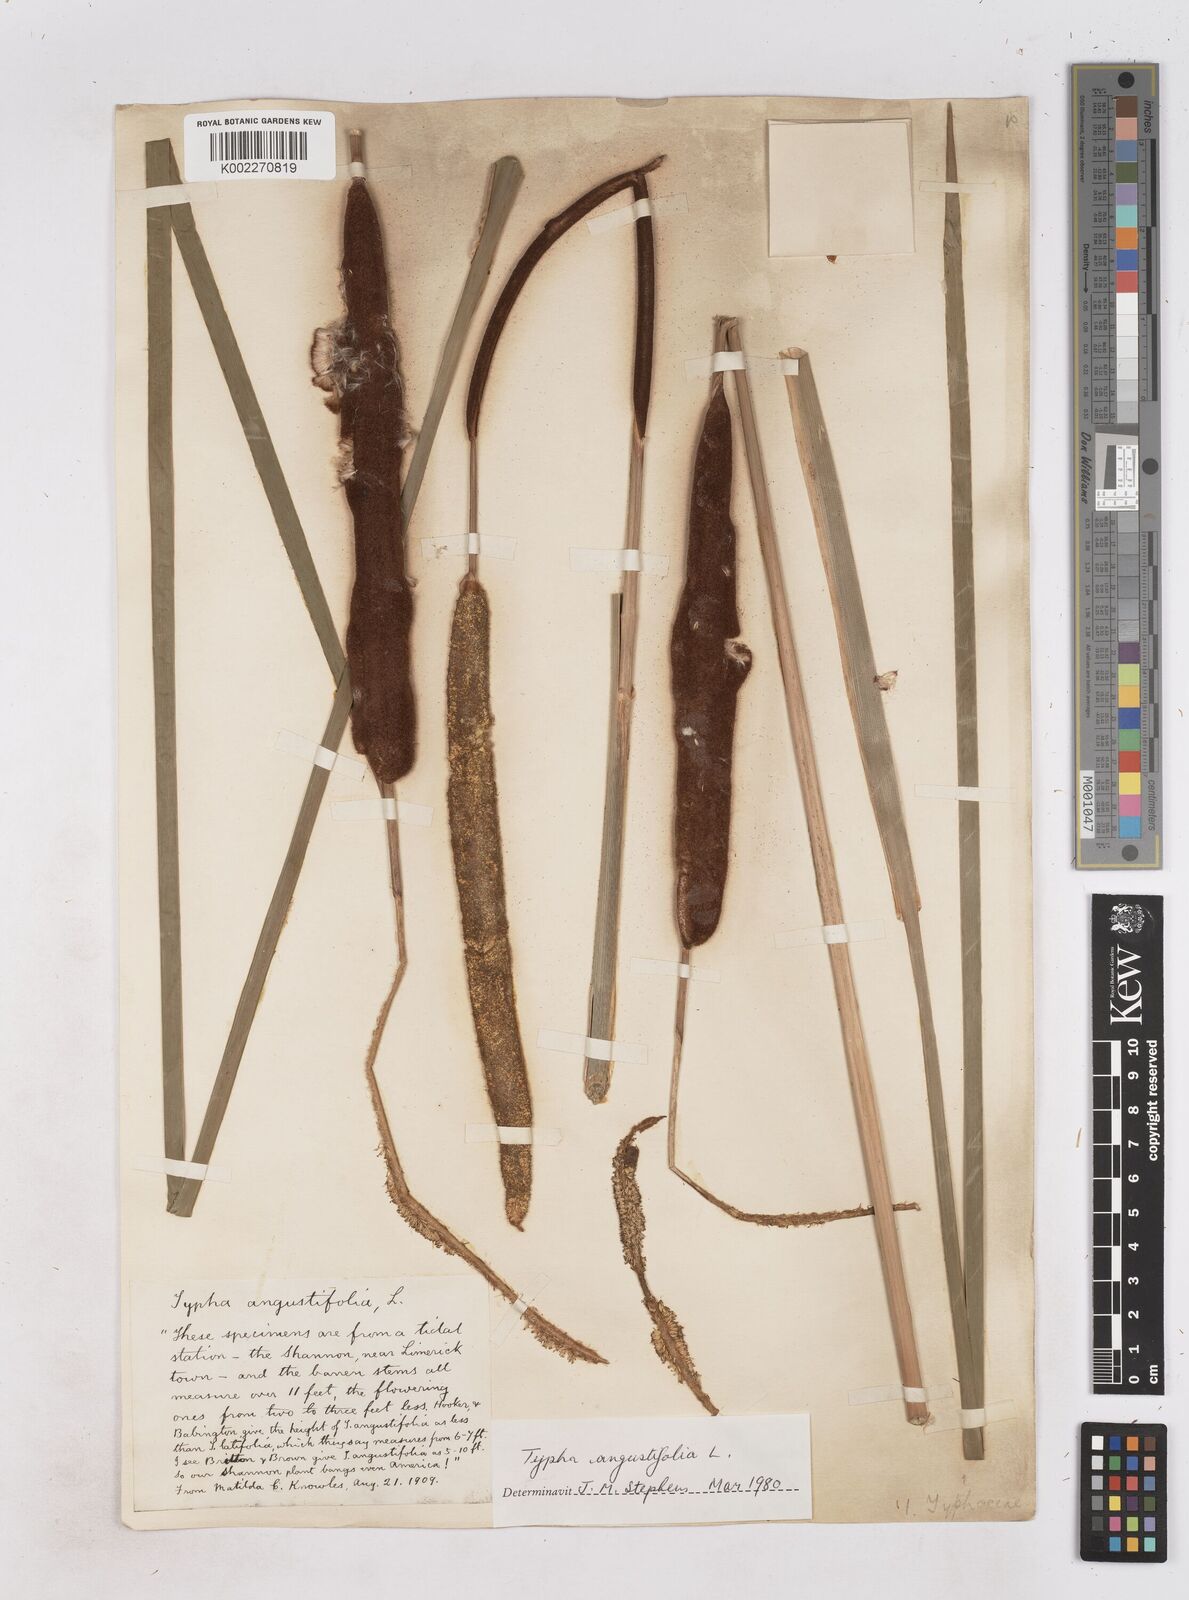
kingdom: Plantae
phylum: Tracheophyta
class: Liliopsida
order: Poales
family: Typhaceae
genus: Typha
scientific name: Typha angustifolia
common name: Lesser bulrush
